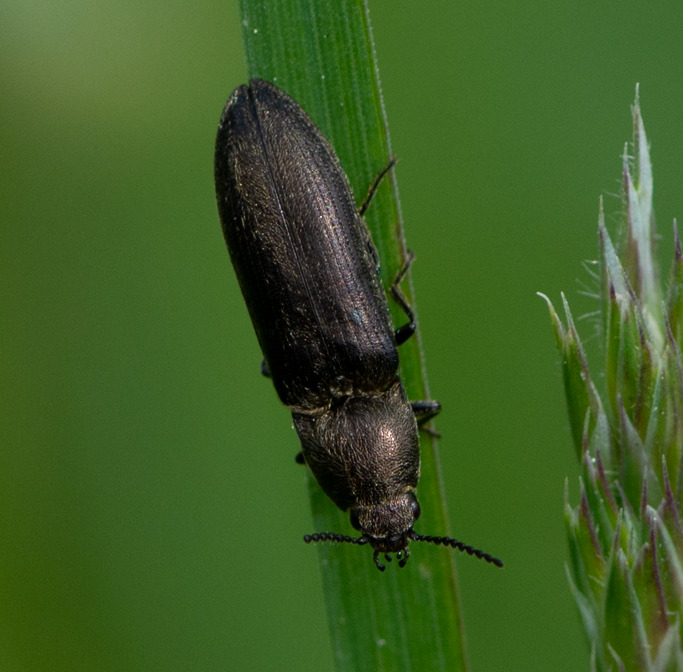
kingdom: Animalia
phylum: Arthropoda
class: Insecta
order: Coleoptera
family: Elateridae
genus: Cidnopus
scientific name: Cidnopus aeruginosus
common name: Ligebred græssmælder
